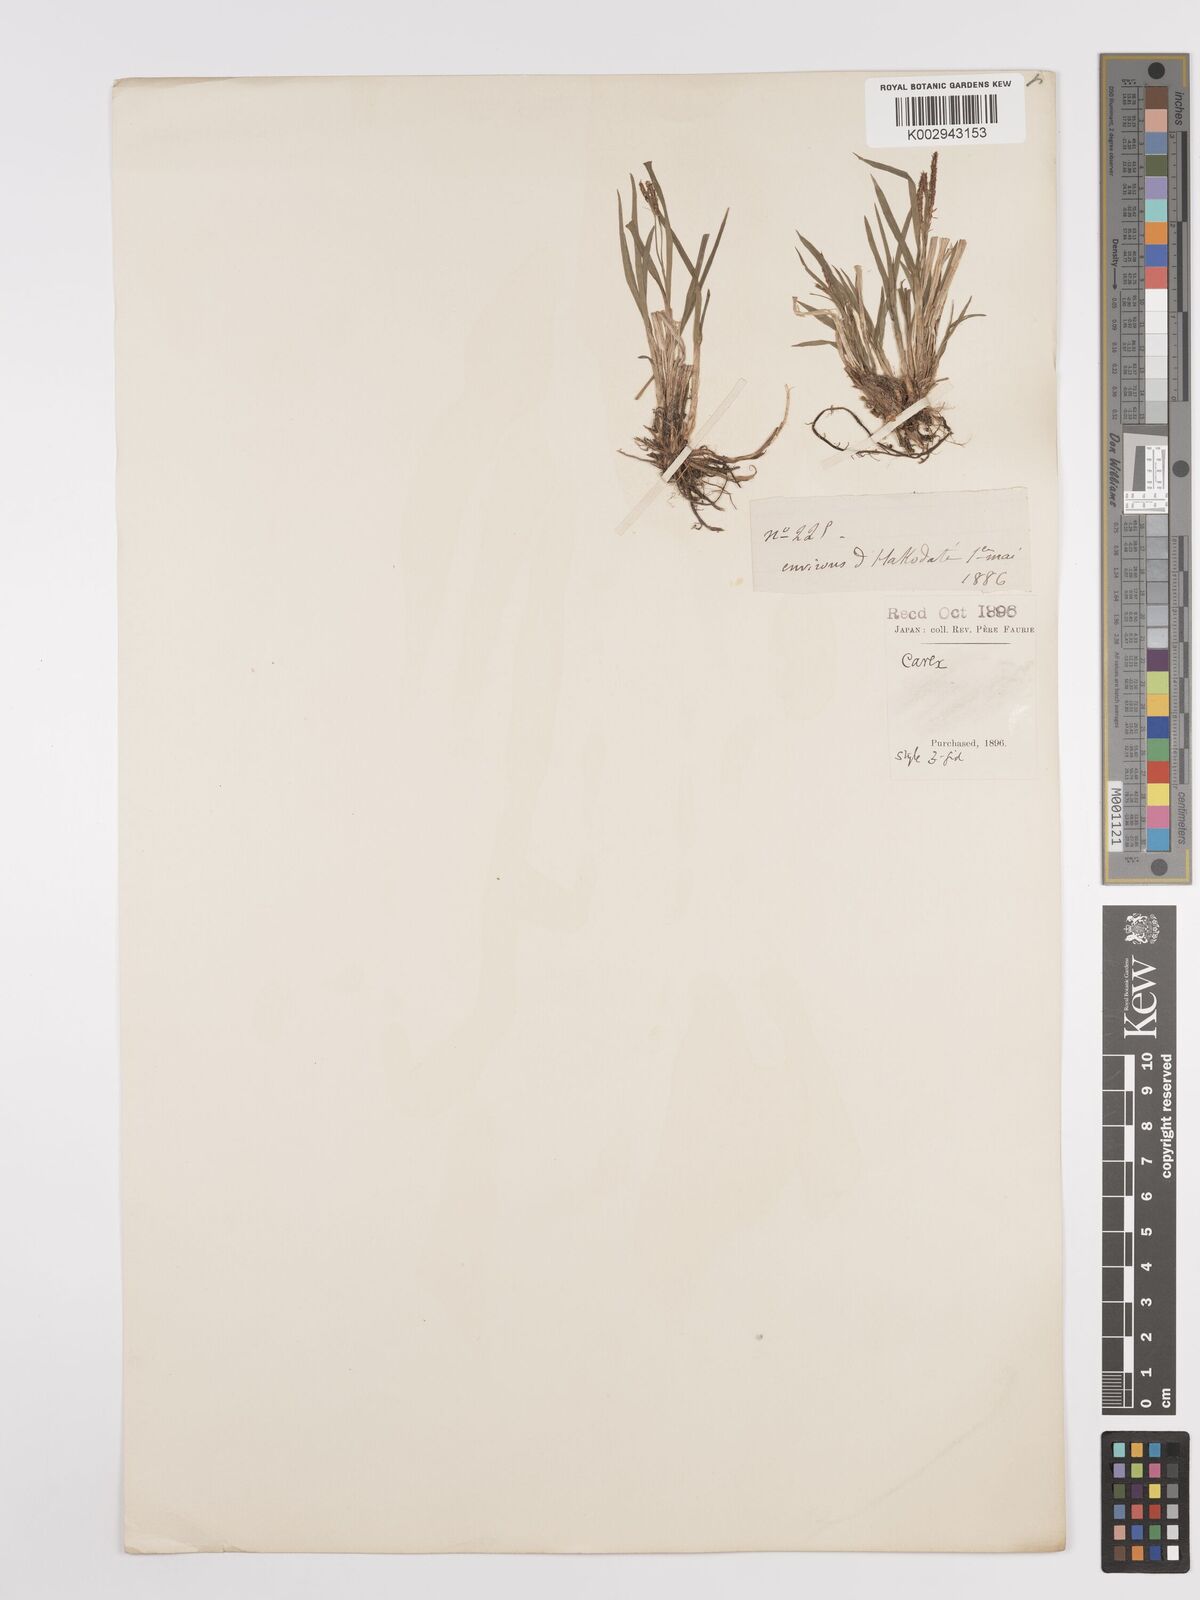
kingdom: Plantae
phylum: Tracheophyta
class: Liliopsida
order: Poales
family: Cyperaceae
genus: Carex
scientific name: Carex
